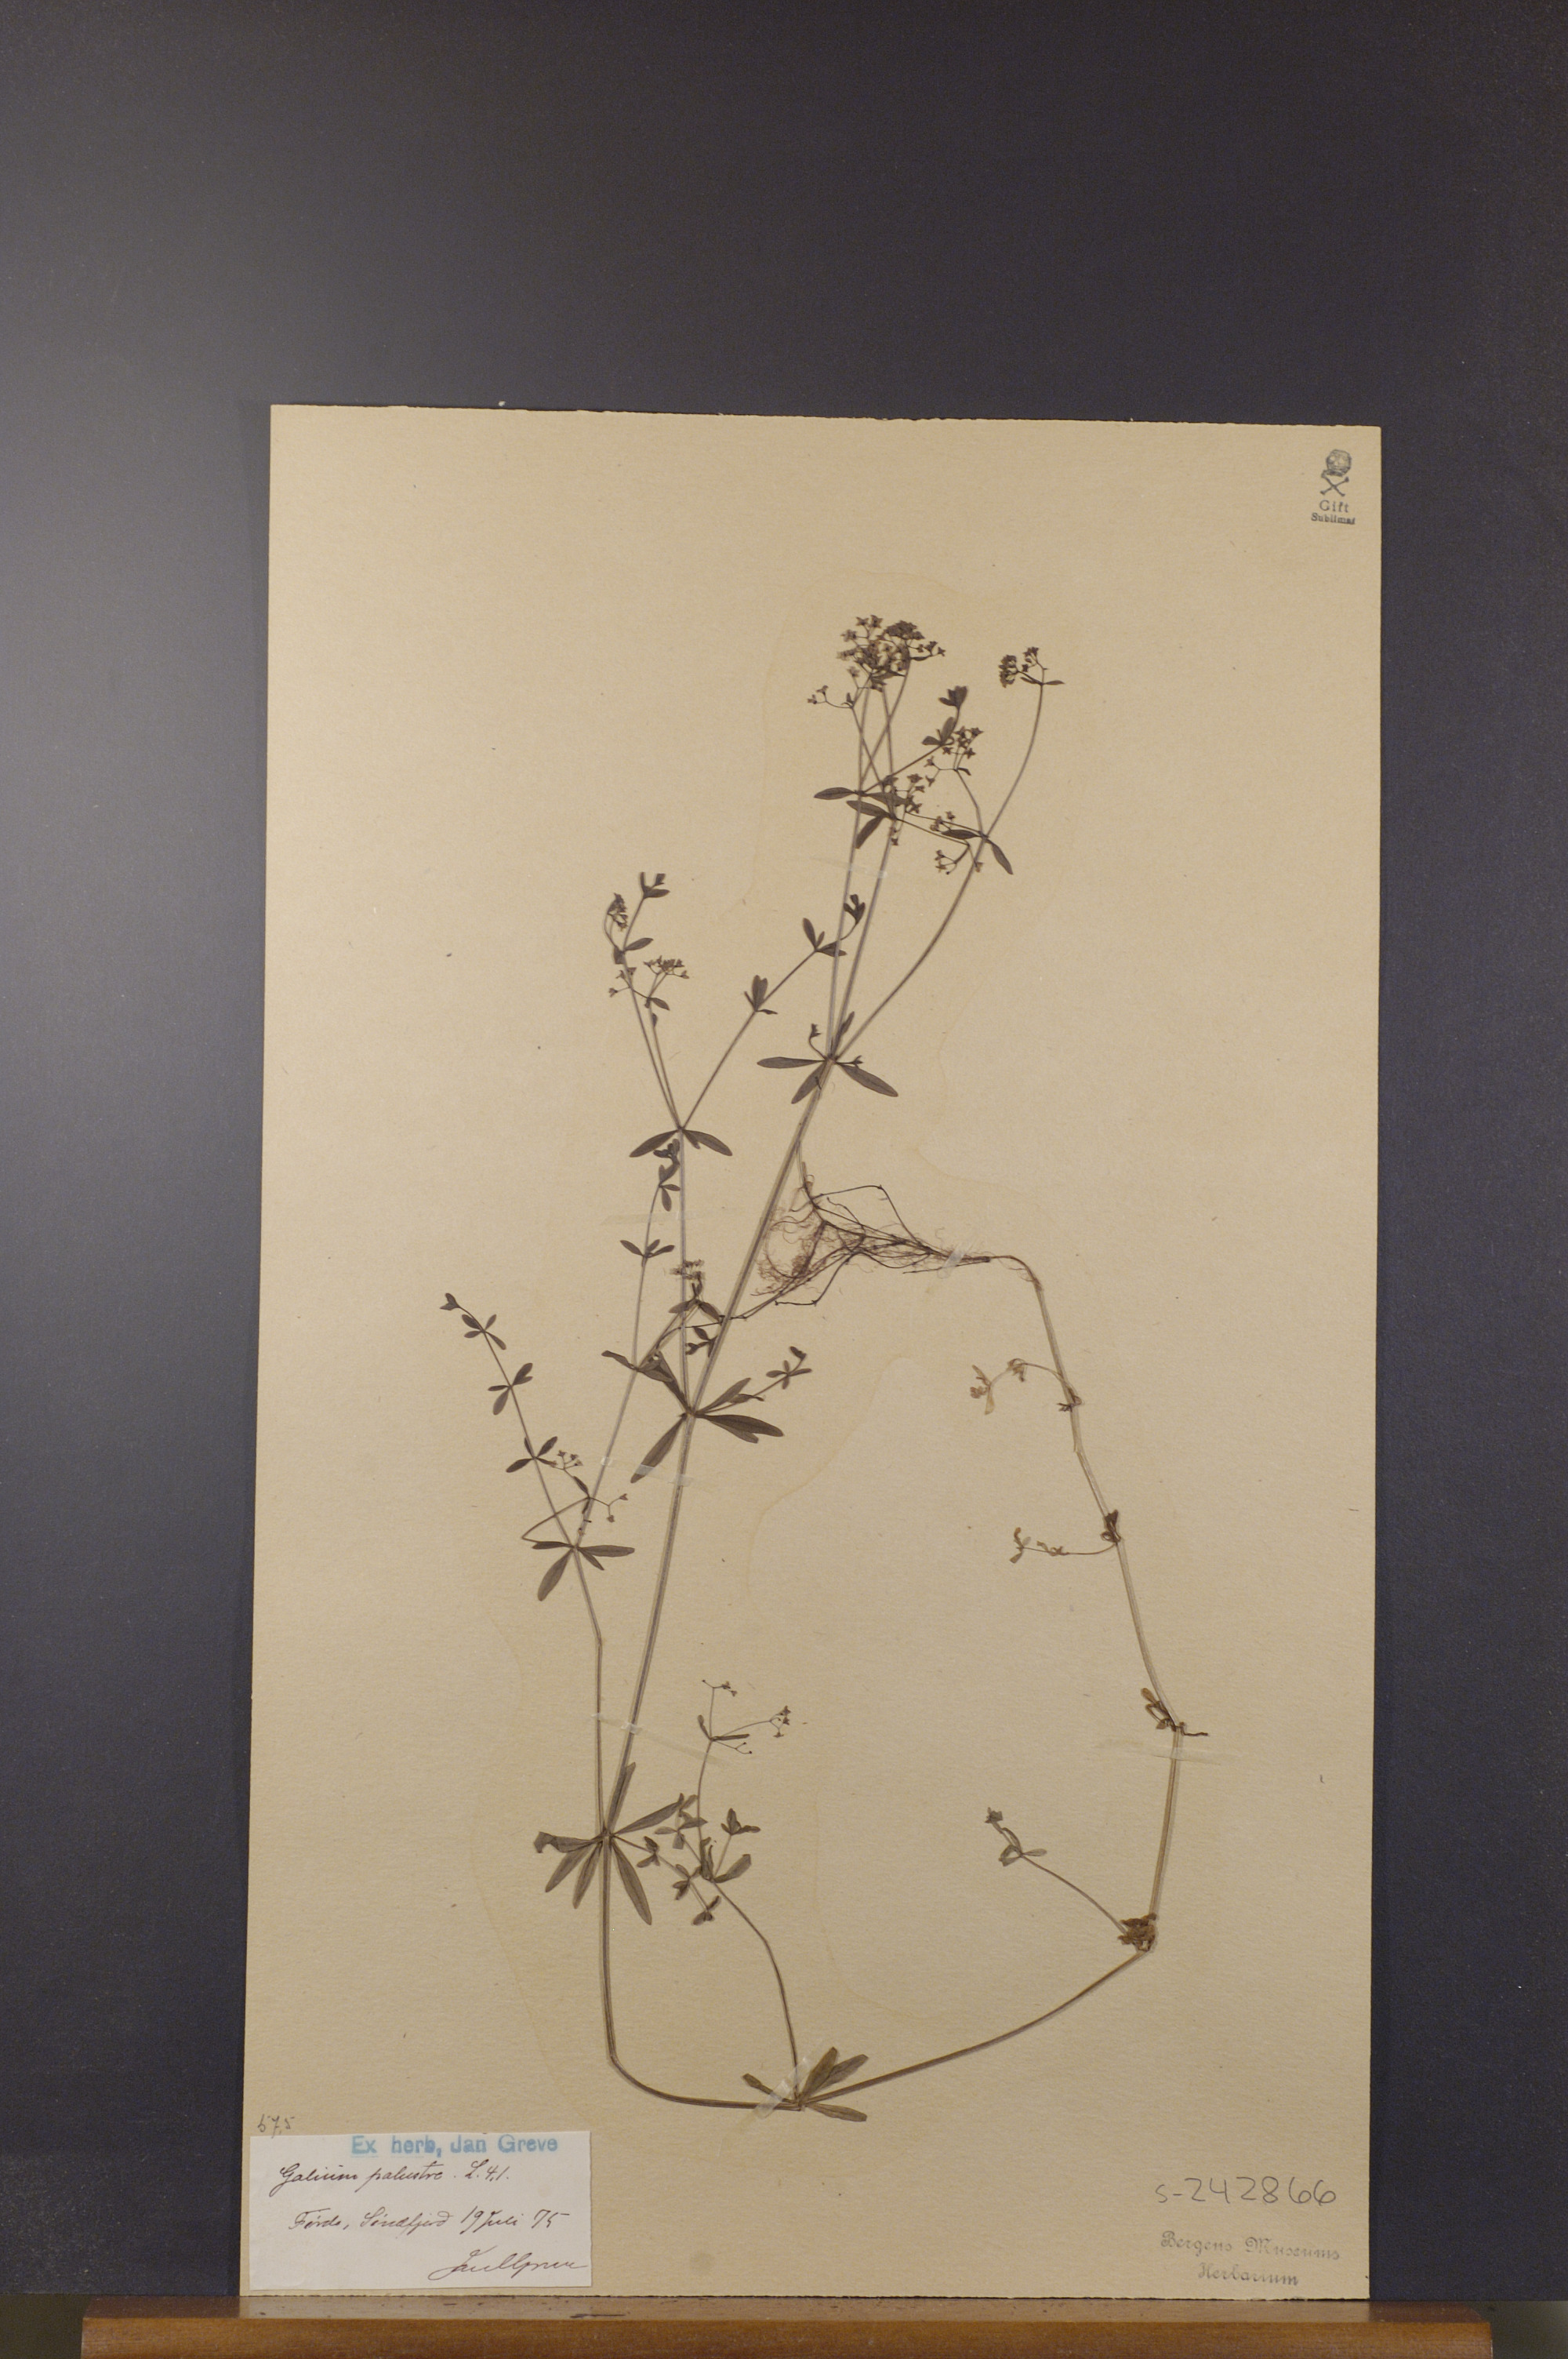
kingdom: Plantae
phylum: Tracheophyta
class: Magnoliopsida
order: Gentianales
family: Rubiaceae
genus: Galium
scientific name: Galium palustre
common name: Common marsh-bedstraw
